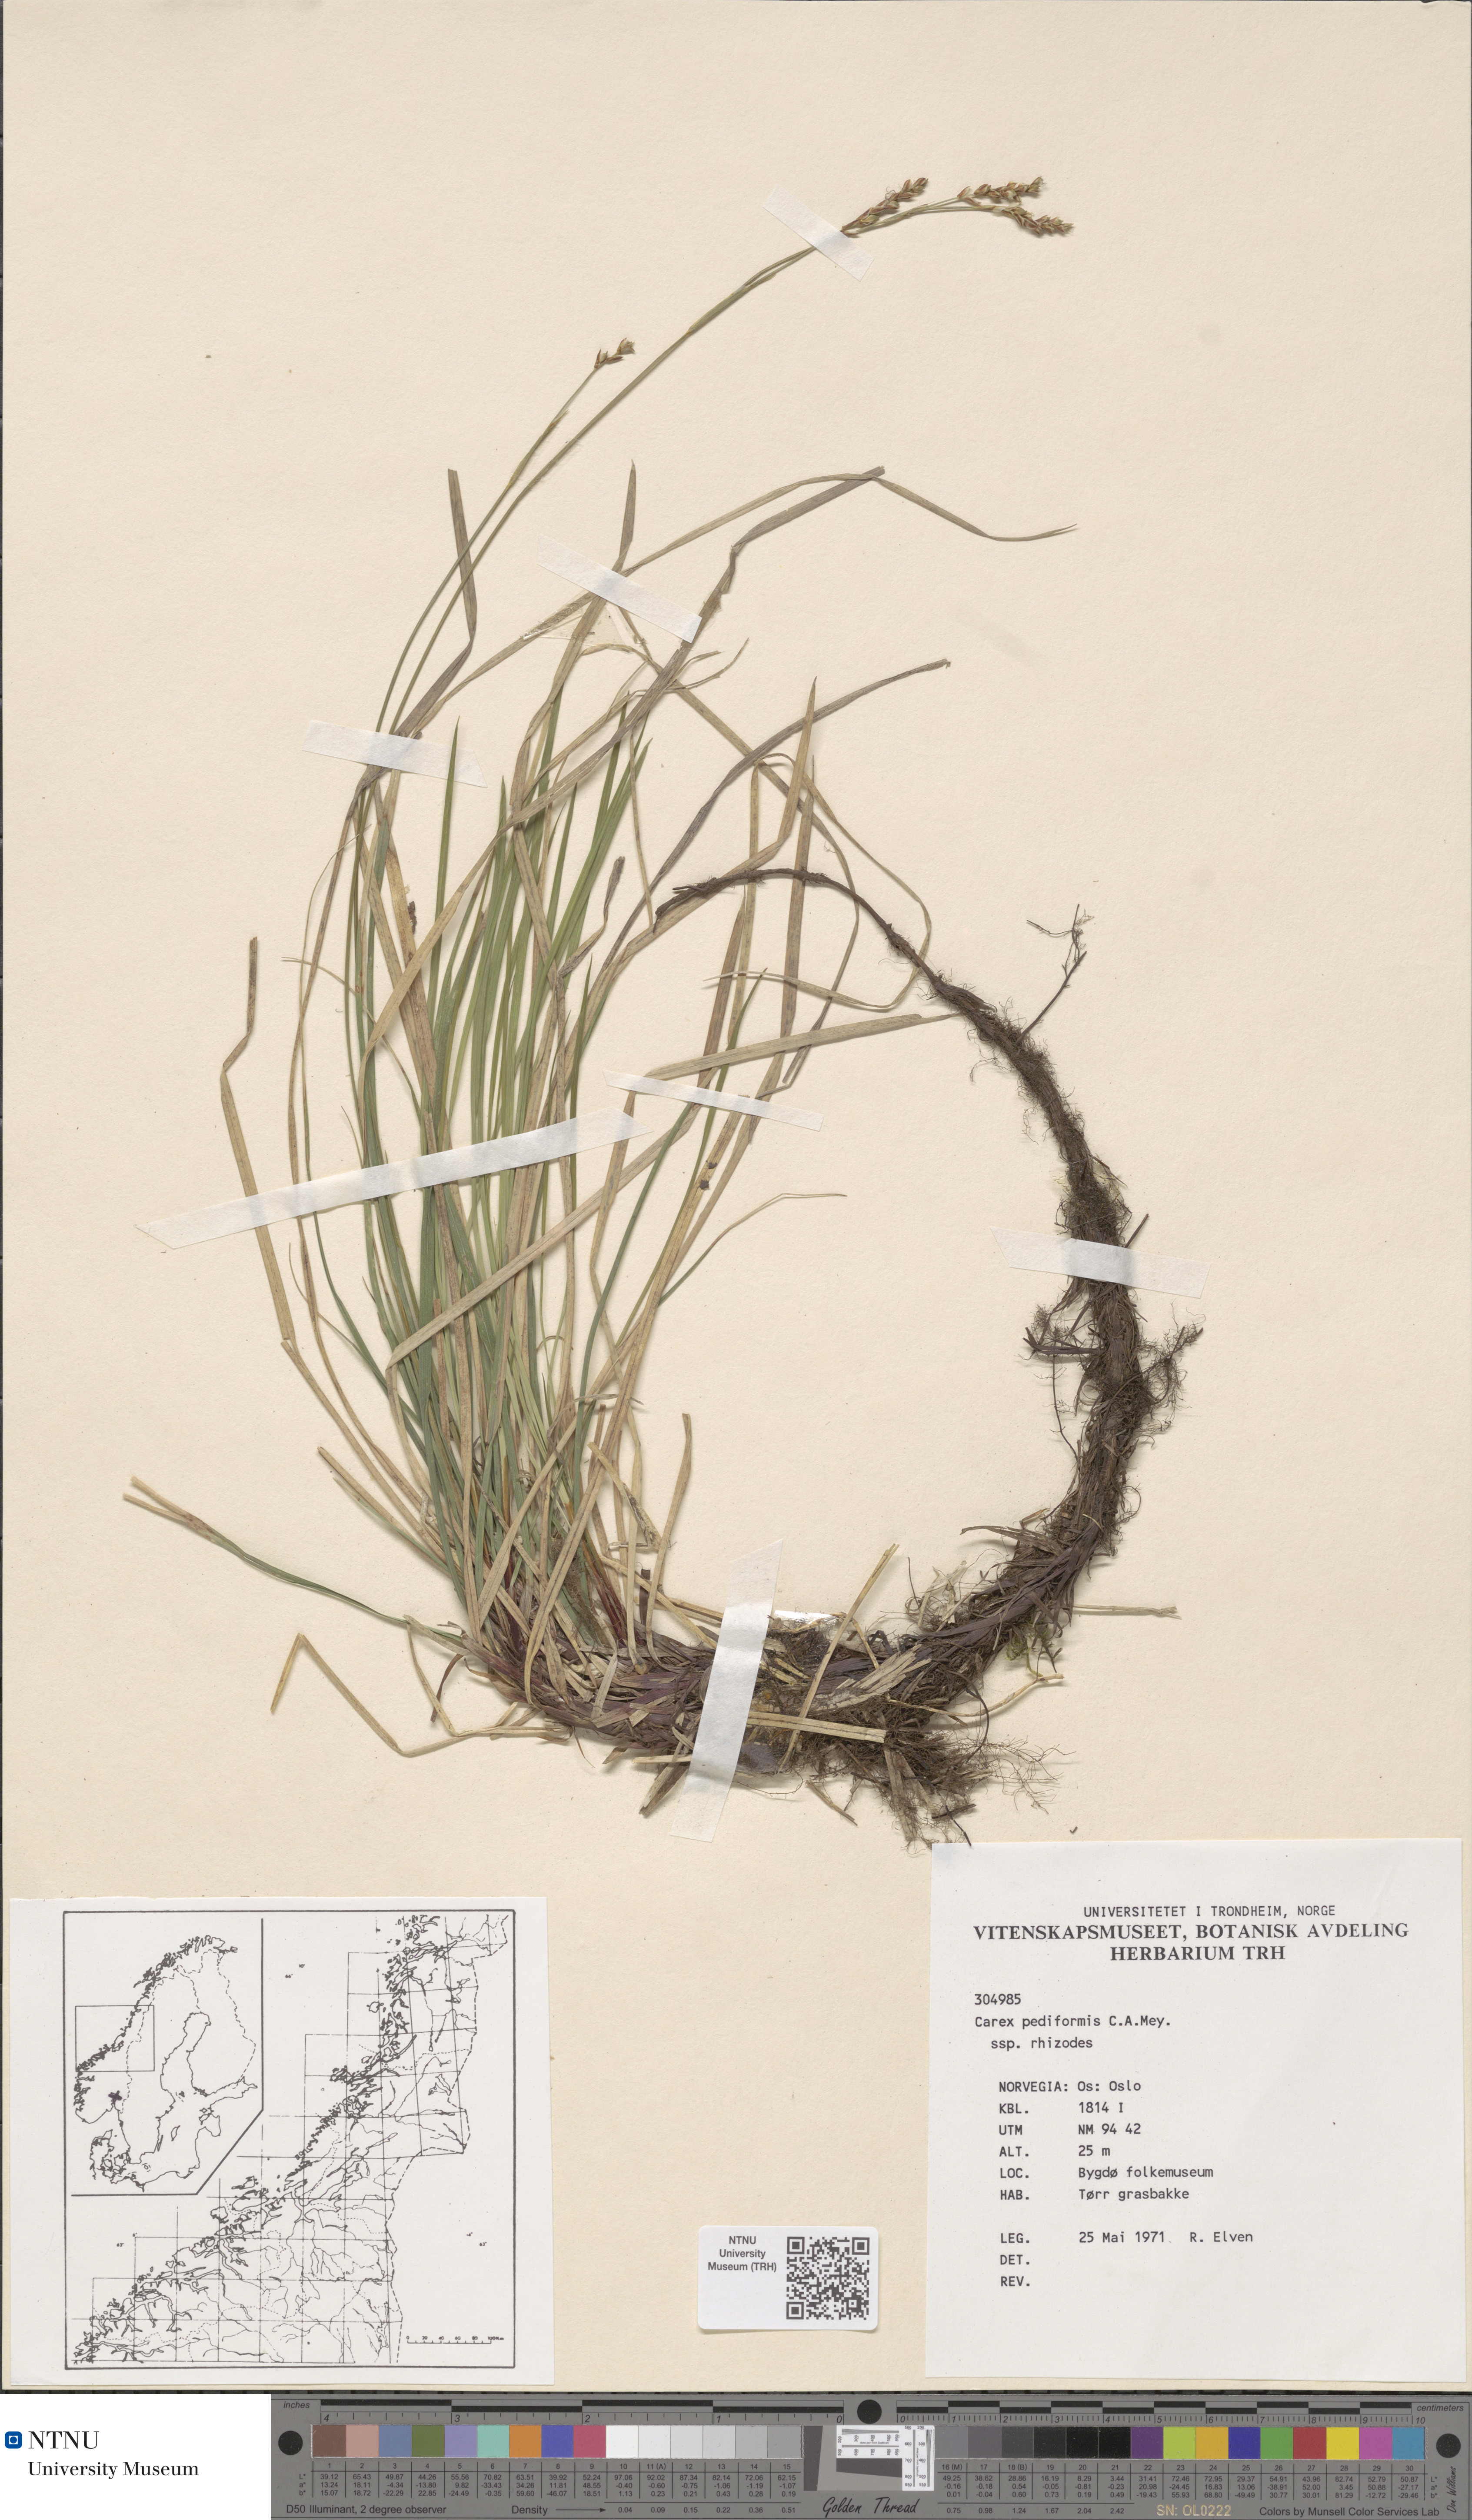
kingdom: Plantae
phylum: Tracheophyta
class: Liliopsida
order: Poales
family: Cyperaceae
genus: Carex
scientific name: Carex rhizina
